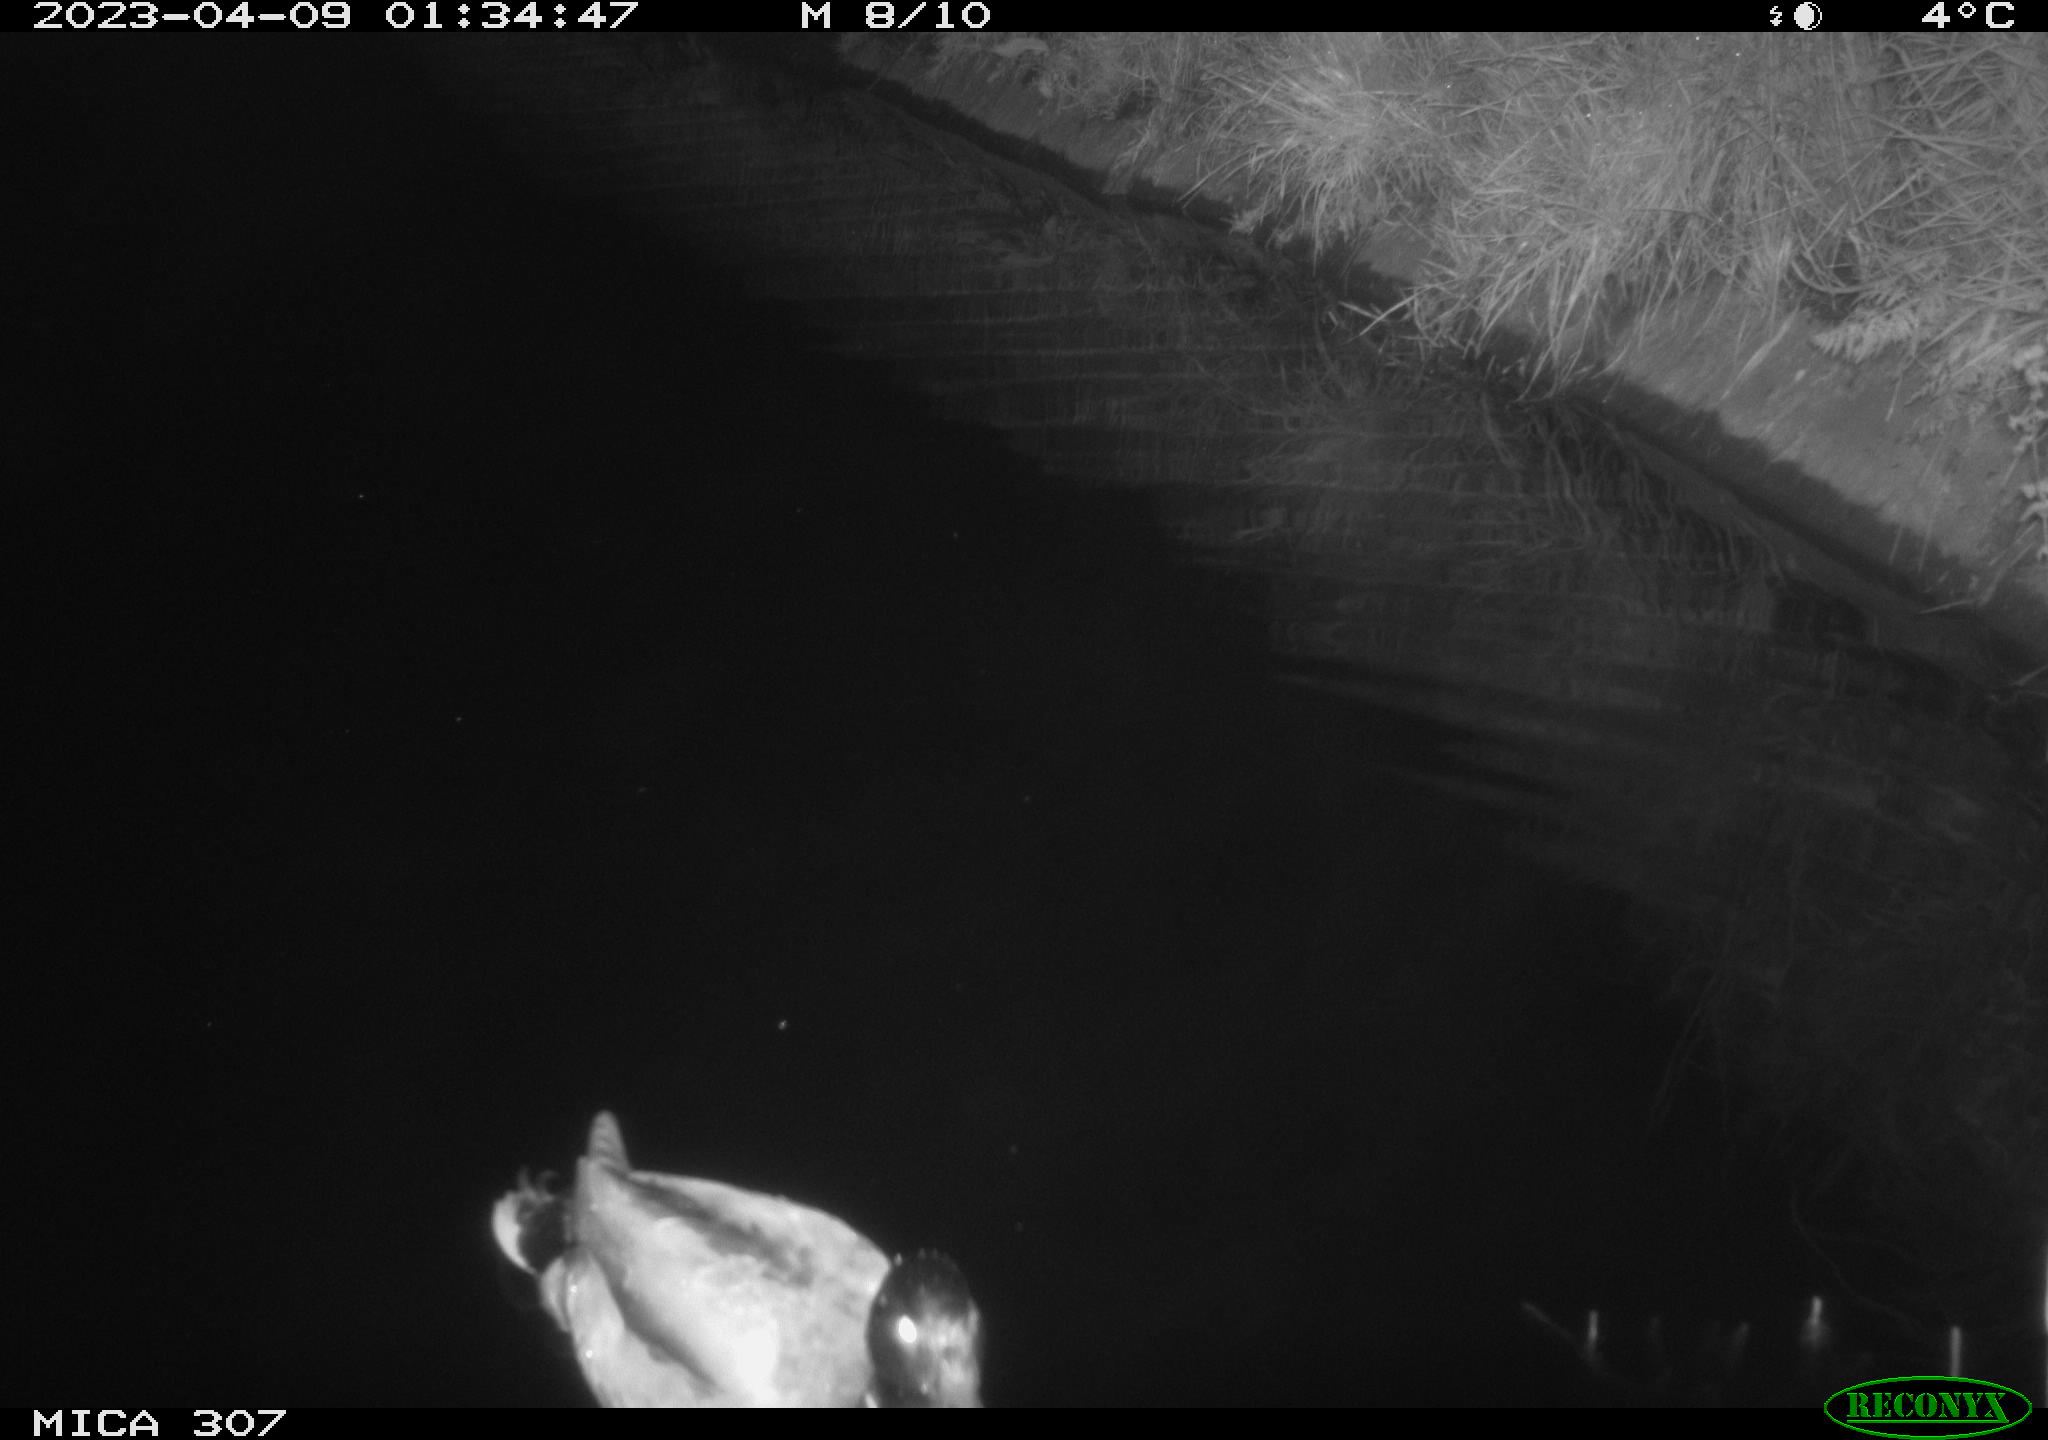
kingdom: Animalia
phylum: Chordata
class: Aves
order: Anseriformes
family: Anatidae
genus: Anas
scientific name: Anas
